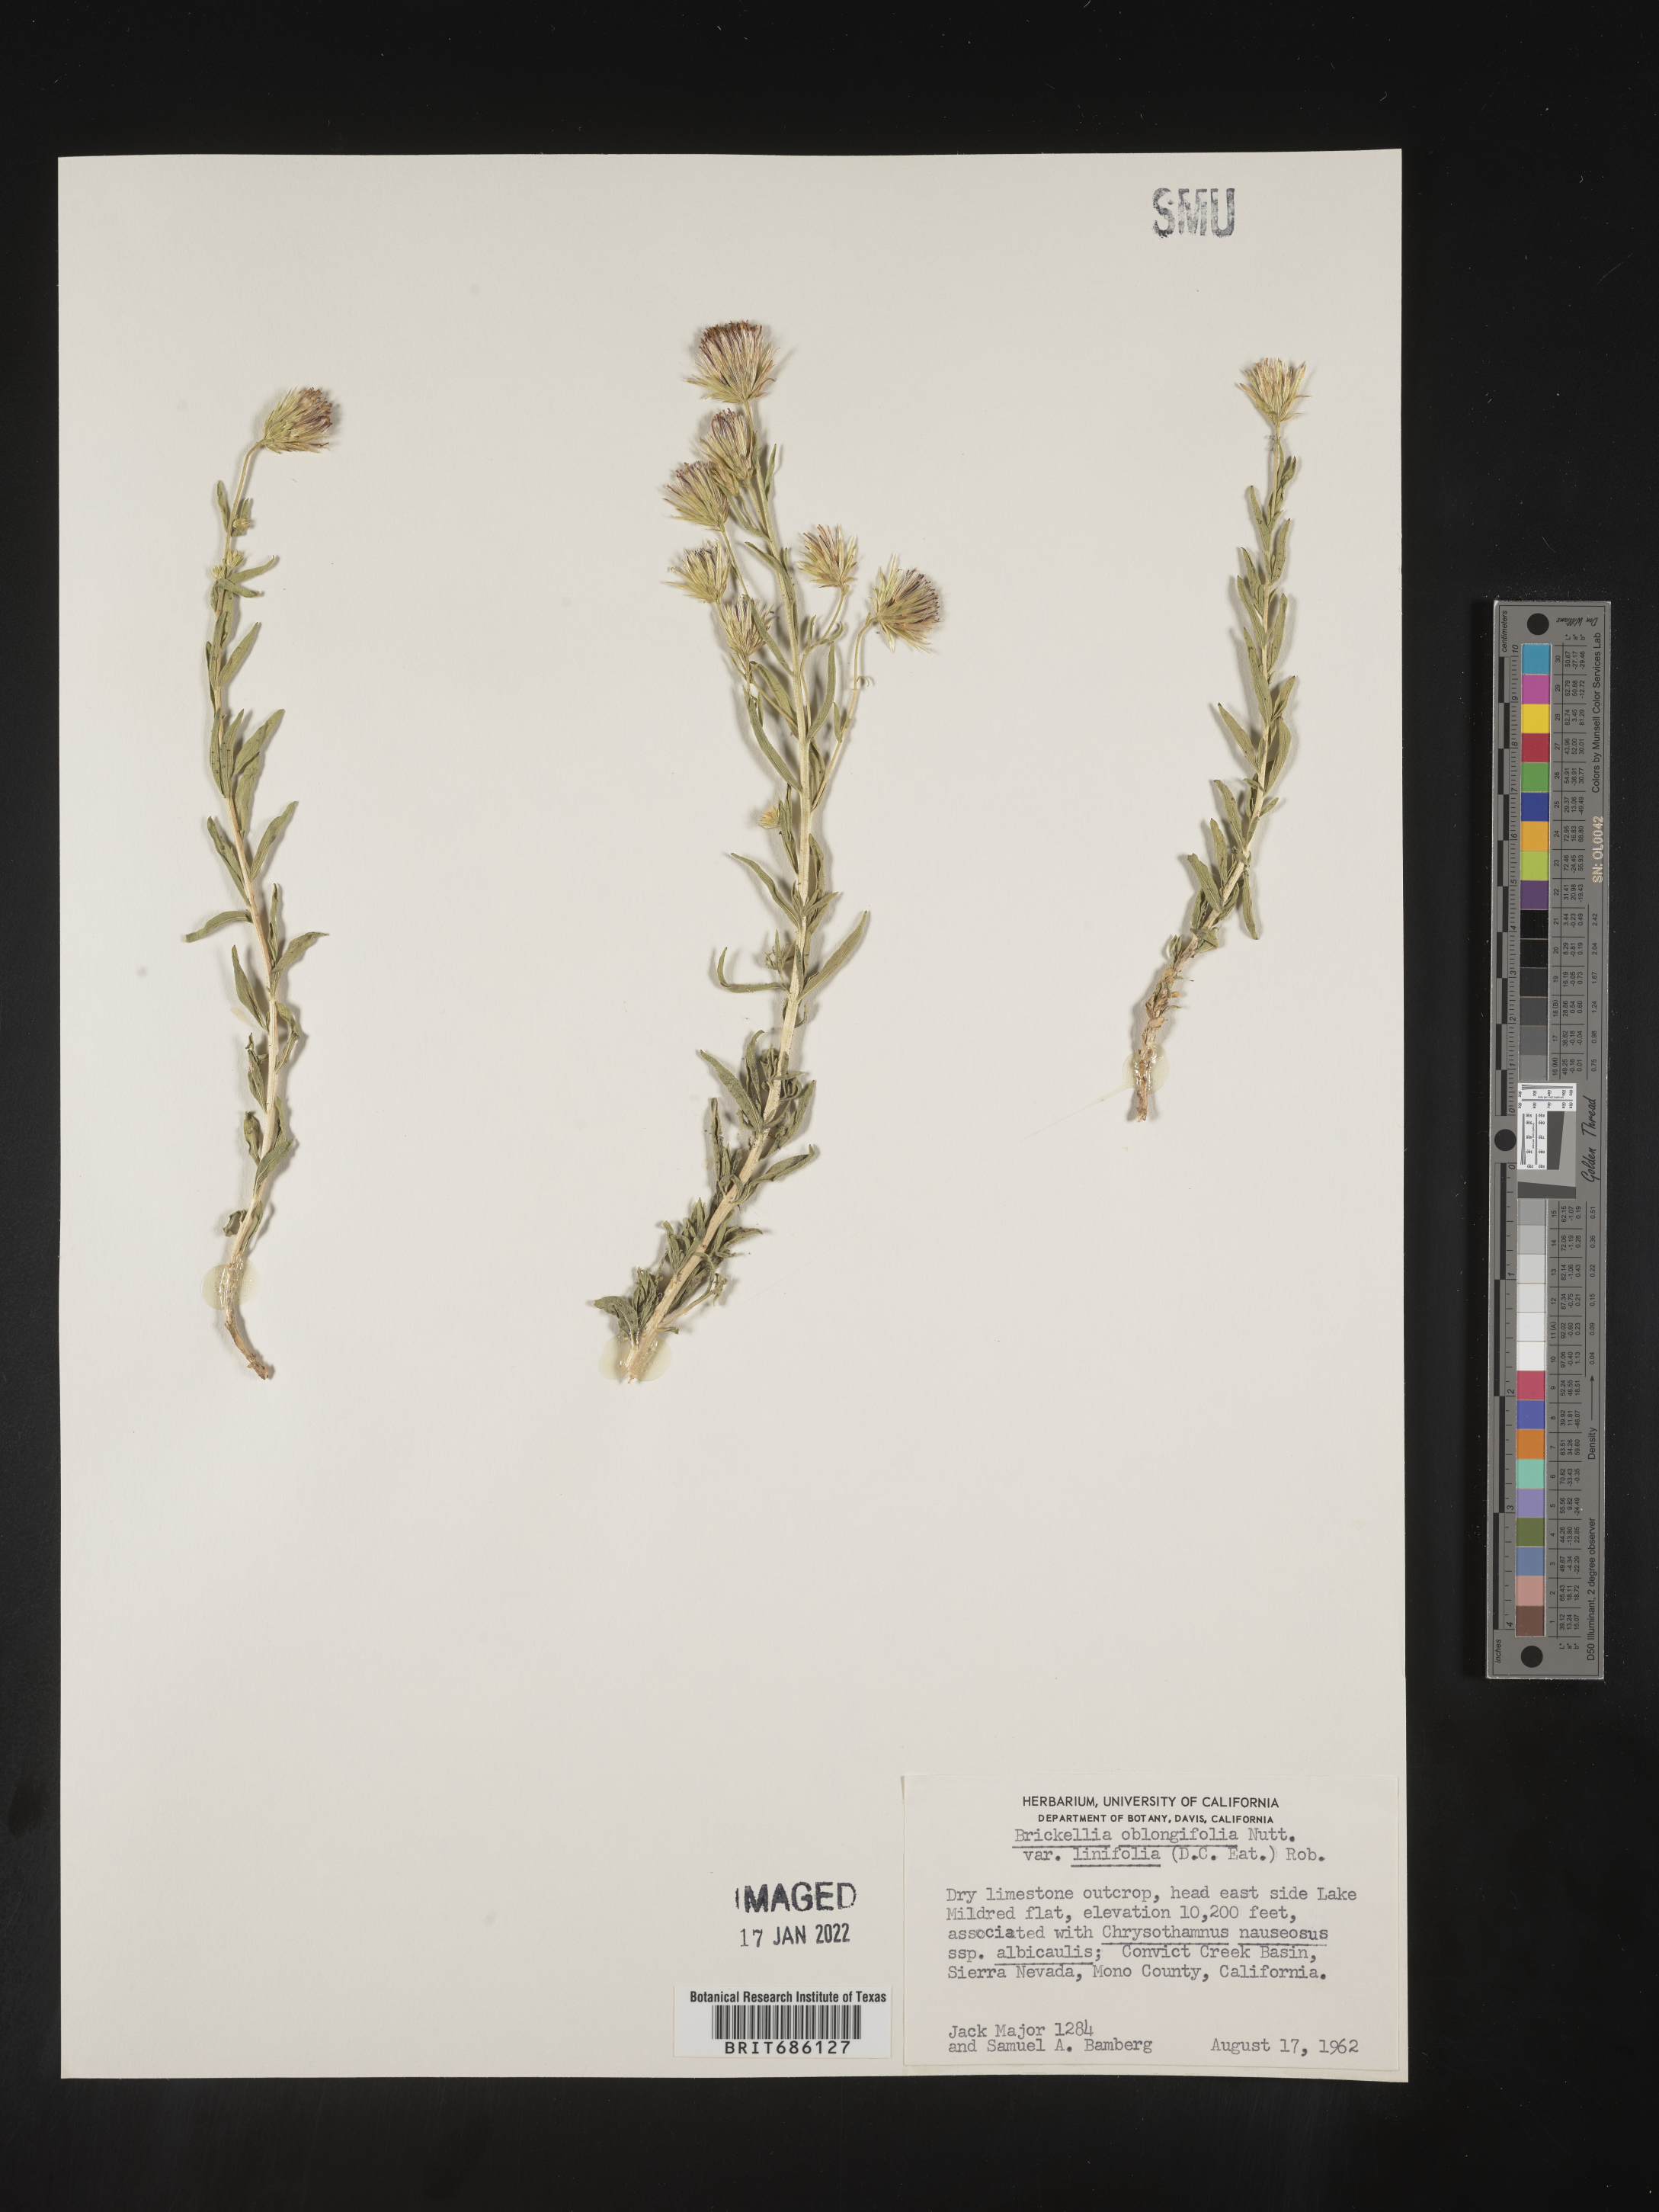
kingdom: Plantae
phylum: Tracheophyta
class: Magnoliopsida
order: Asterales
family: Asteraceae
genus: Brickellia
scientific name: Brickellia oblongifolia
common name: Mojave brickellbush
